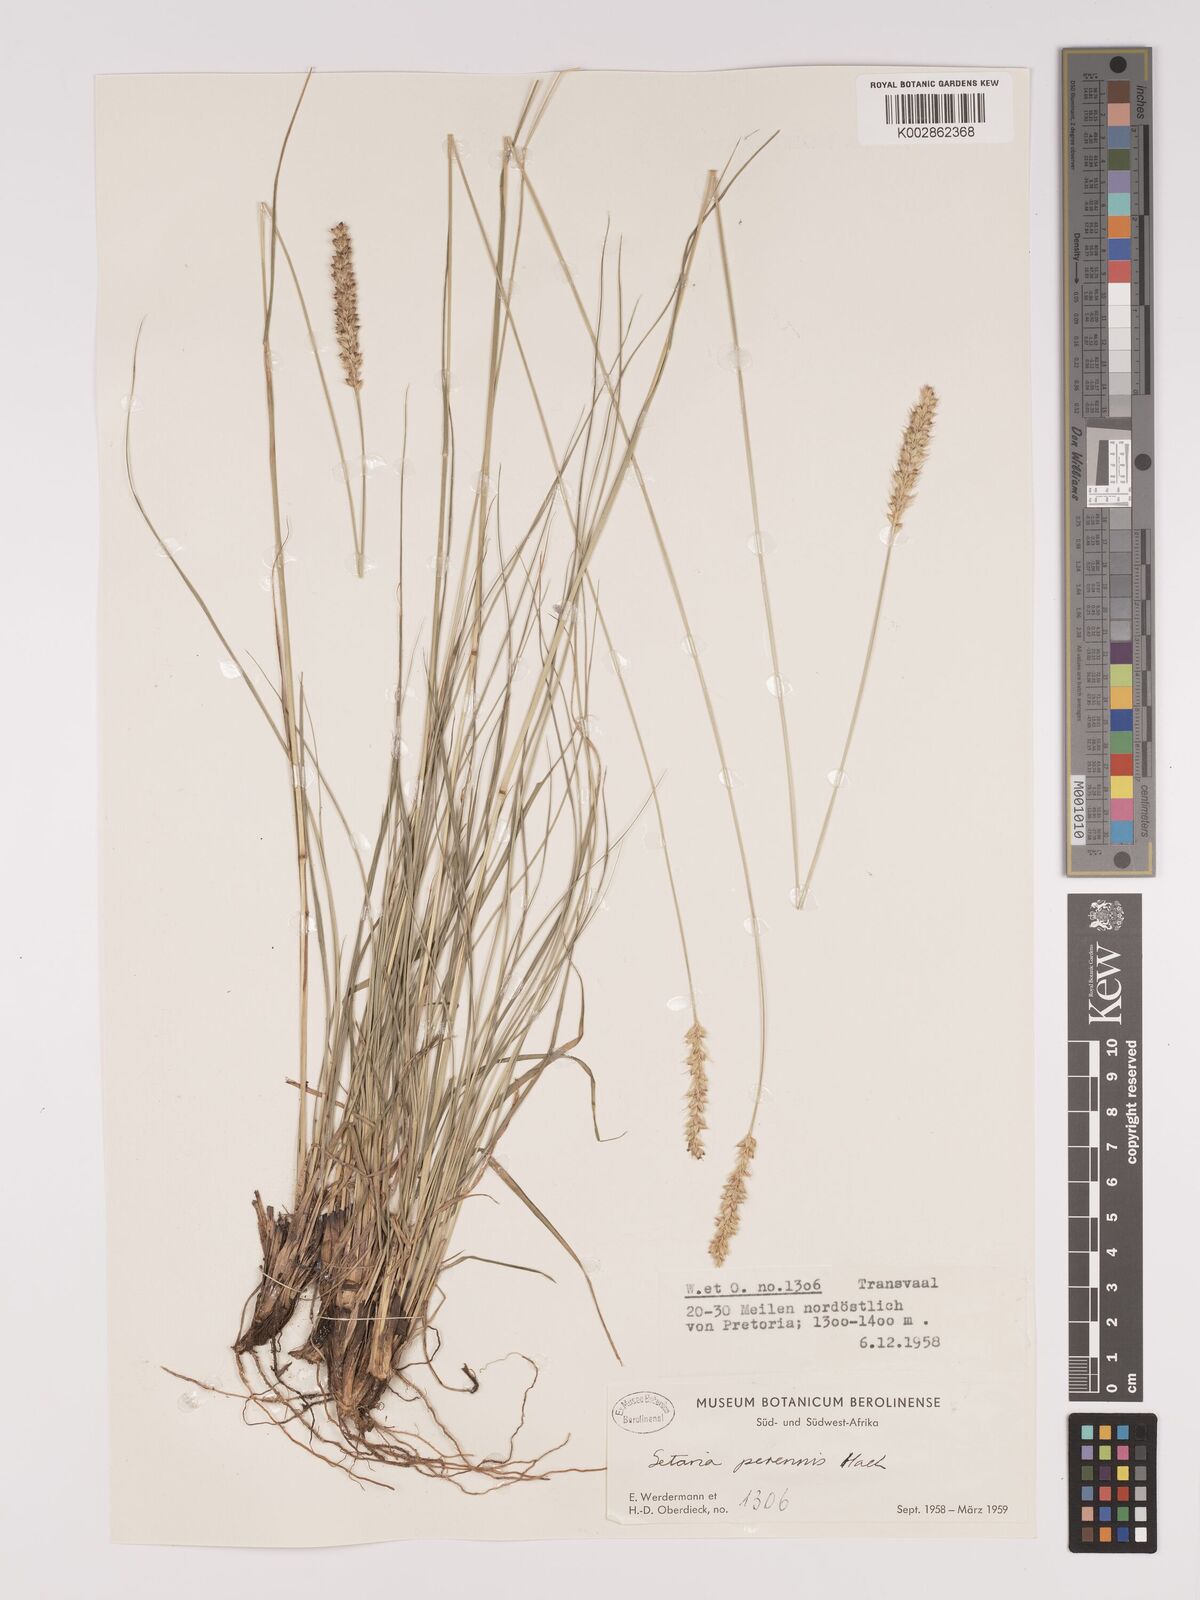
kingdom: Plantae
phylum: Tracheophyta
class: Liliopsida
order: Poales
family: Poaceae
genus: Setaria
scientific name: Setaria
